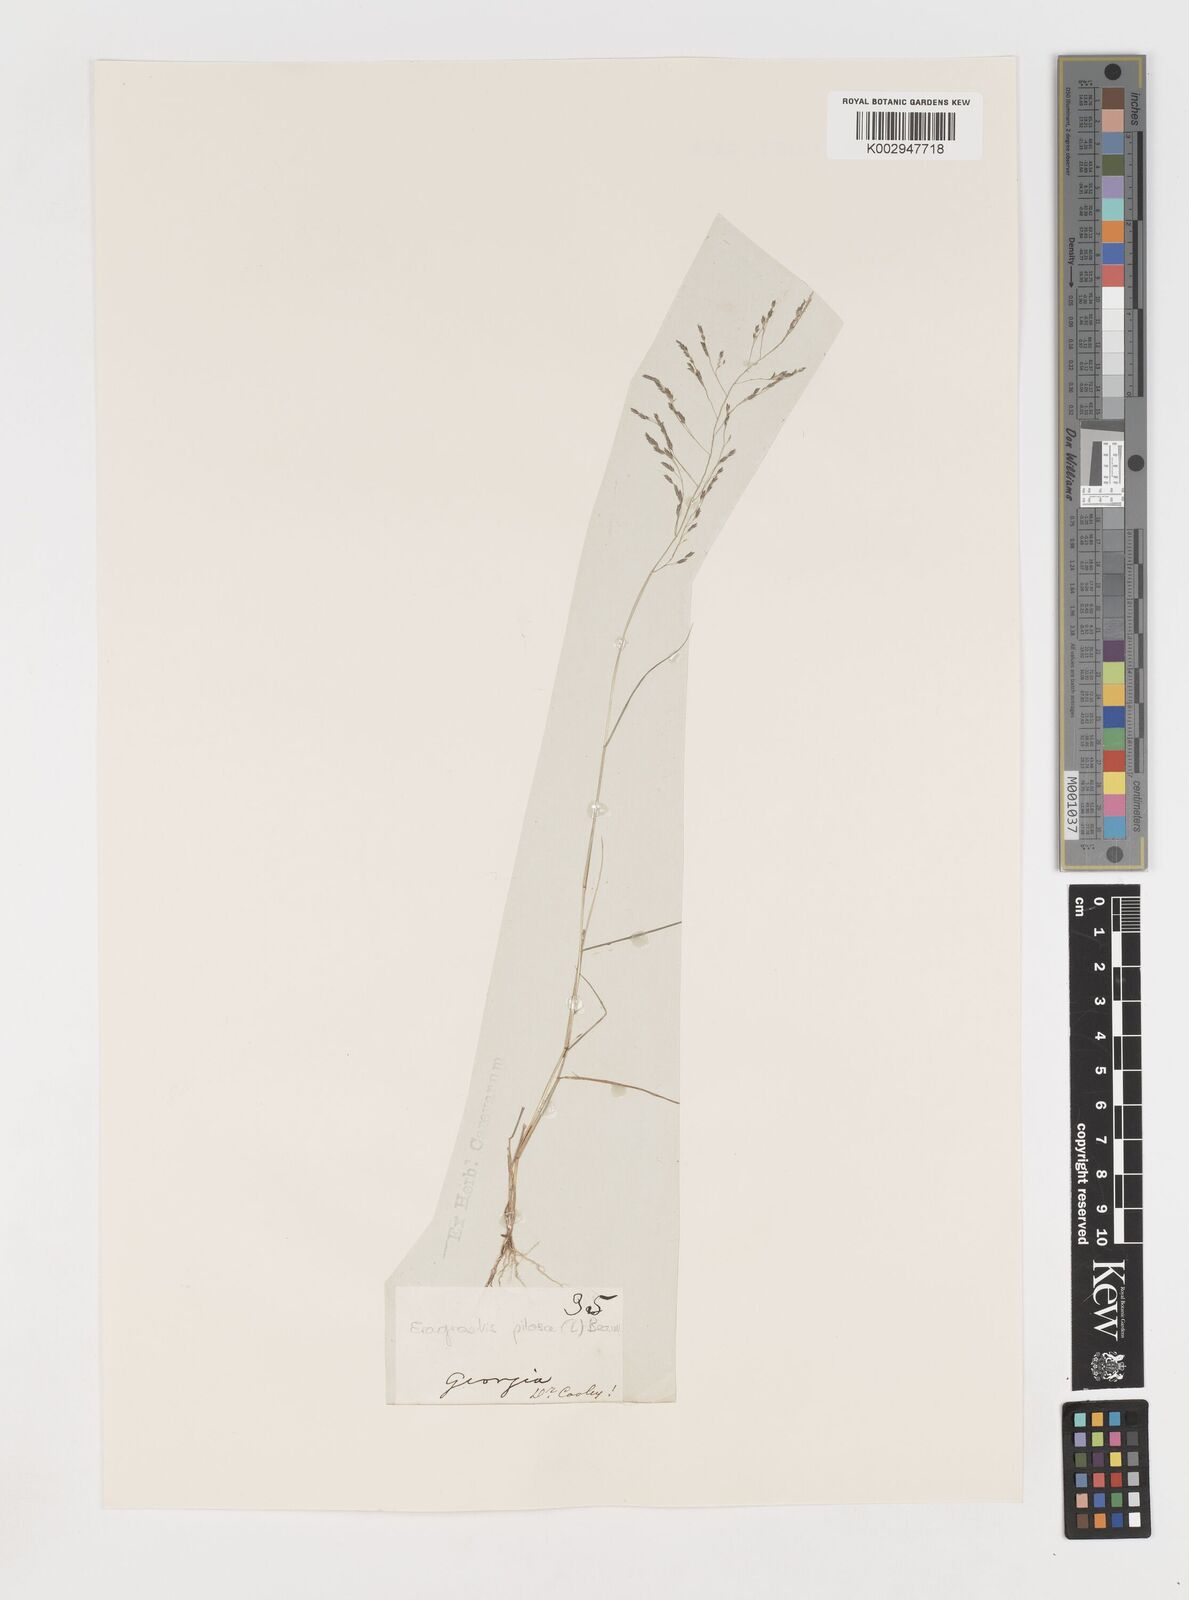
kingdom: Plantae
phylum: Tracheophyta
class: Liliopsida
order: Poales
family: Poaceae
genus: Eragrostis
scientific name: Eragrostis pilosa
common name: Indian lovegrass
